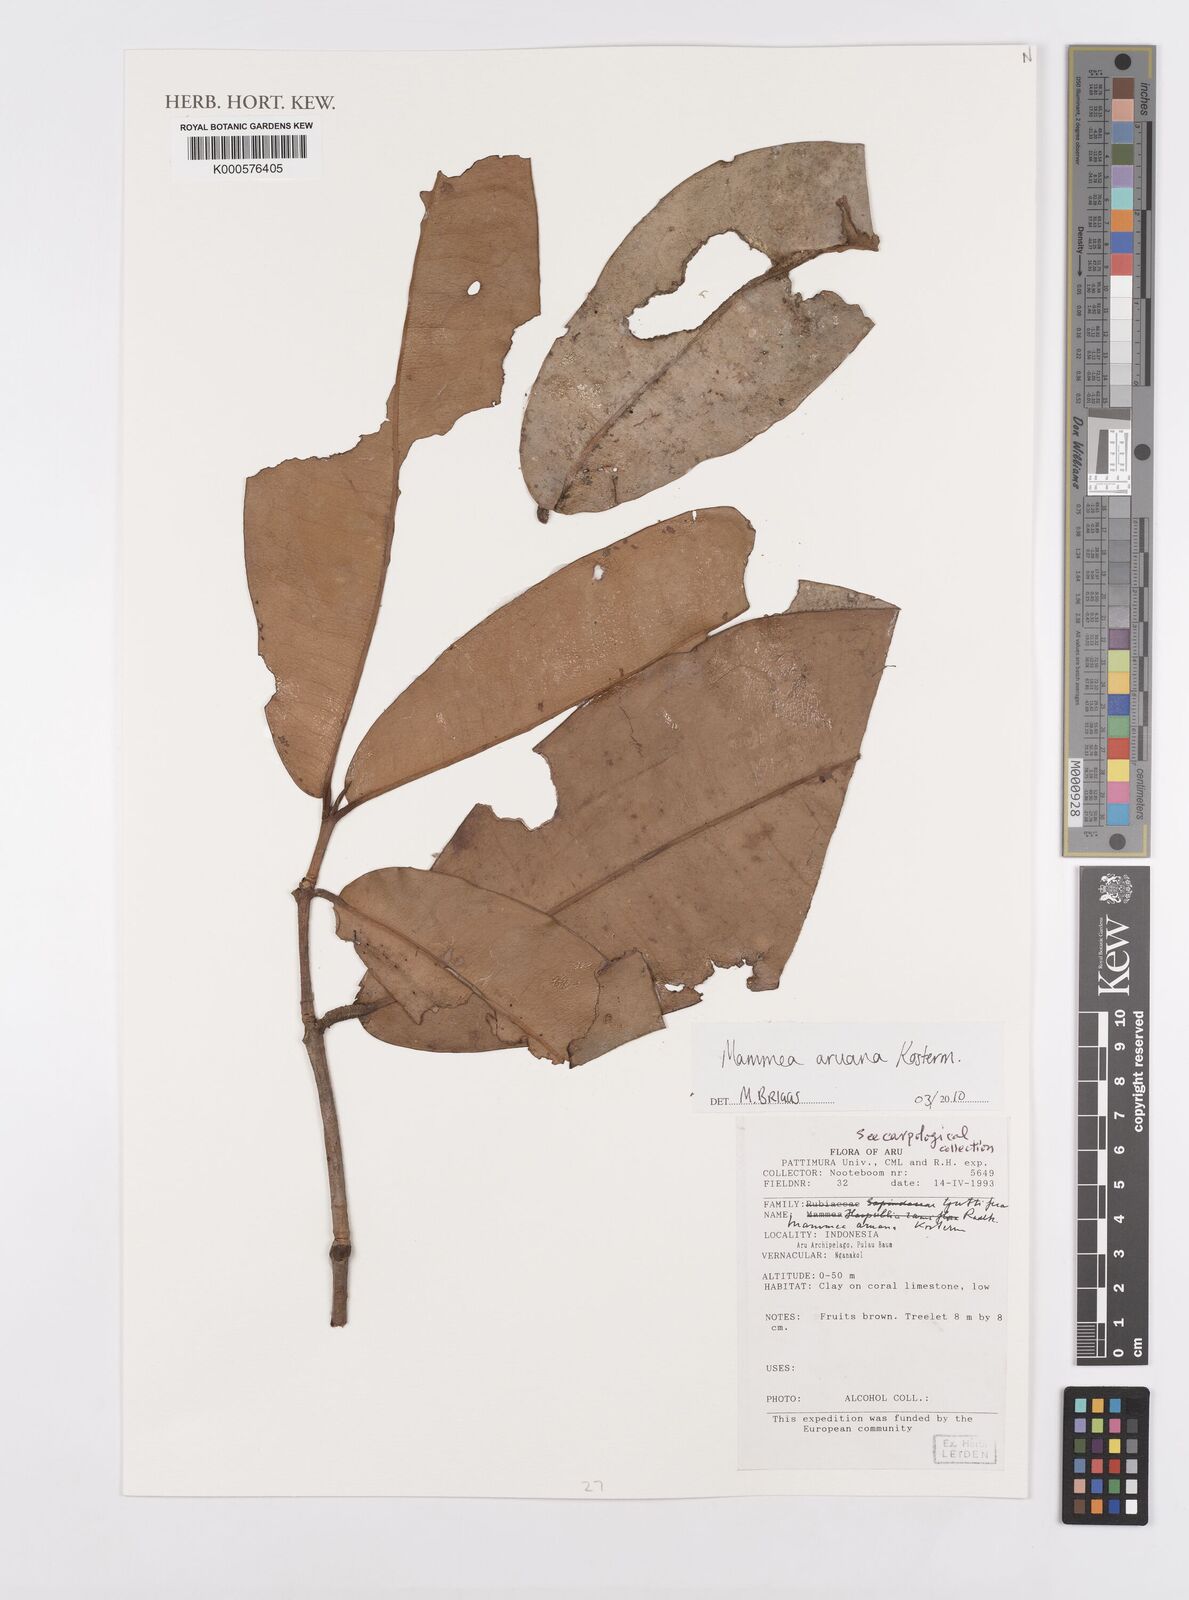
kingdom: Plantae
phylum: Tracheophyta
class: Magnoliopsida
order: Malpighiales
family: Calophyllaceae
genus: Mammea
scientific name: Mammea aruana
